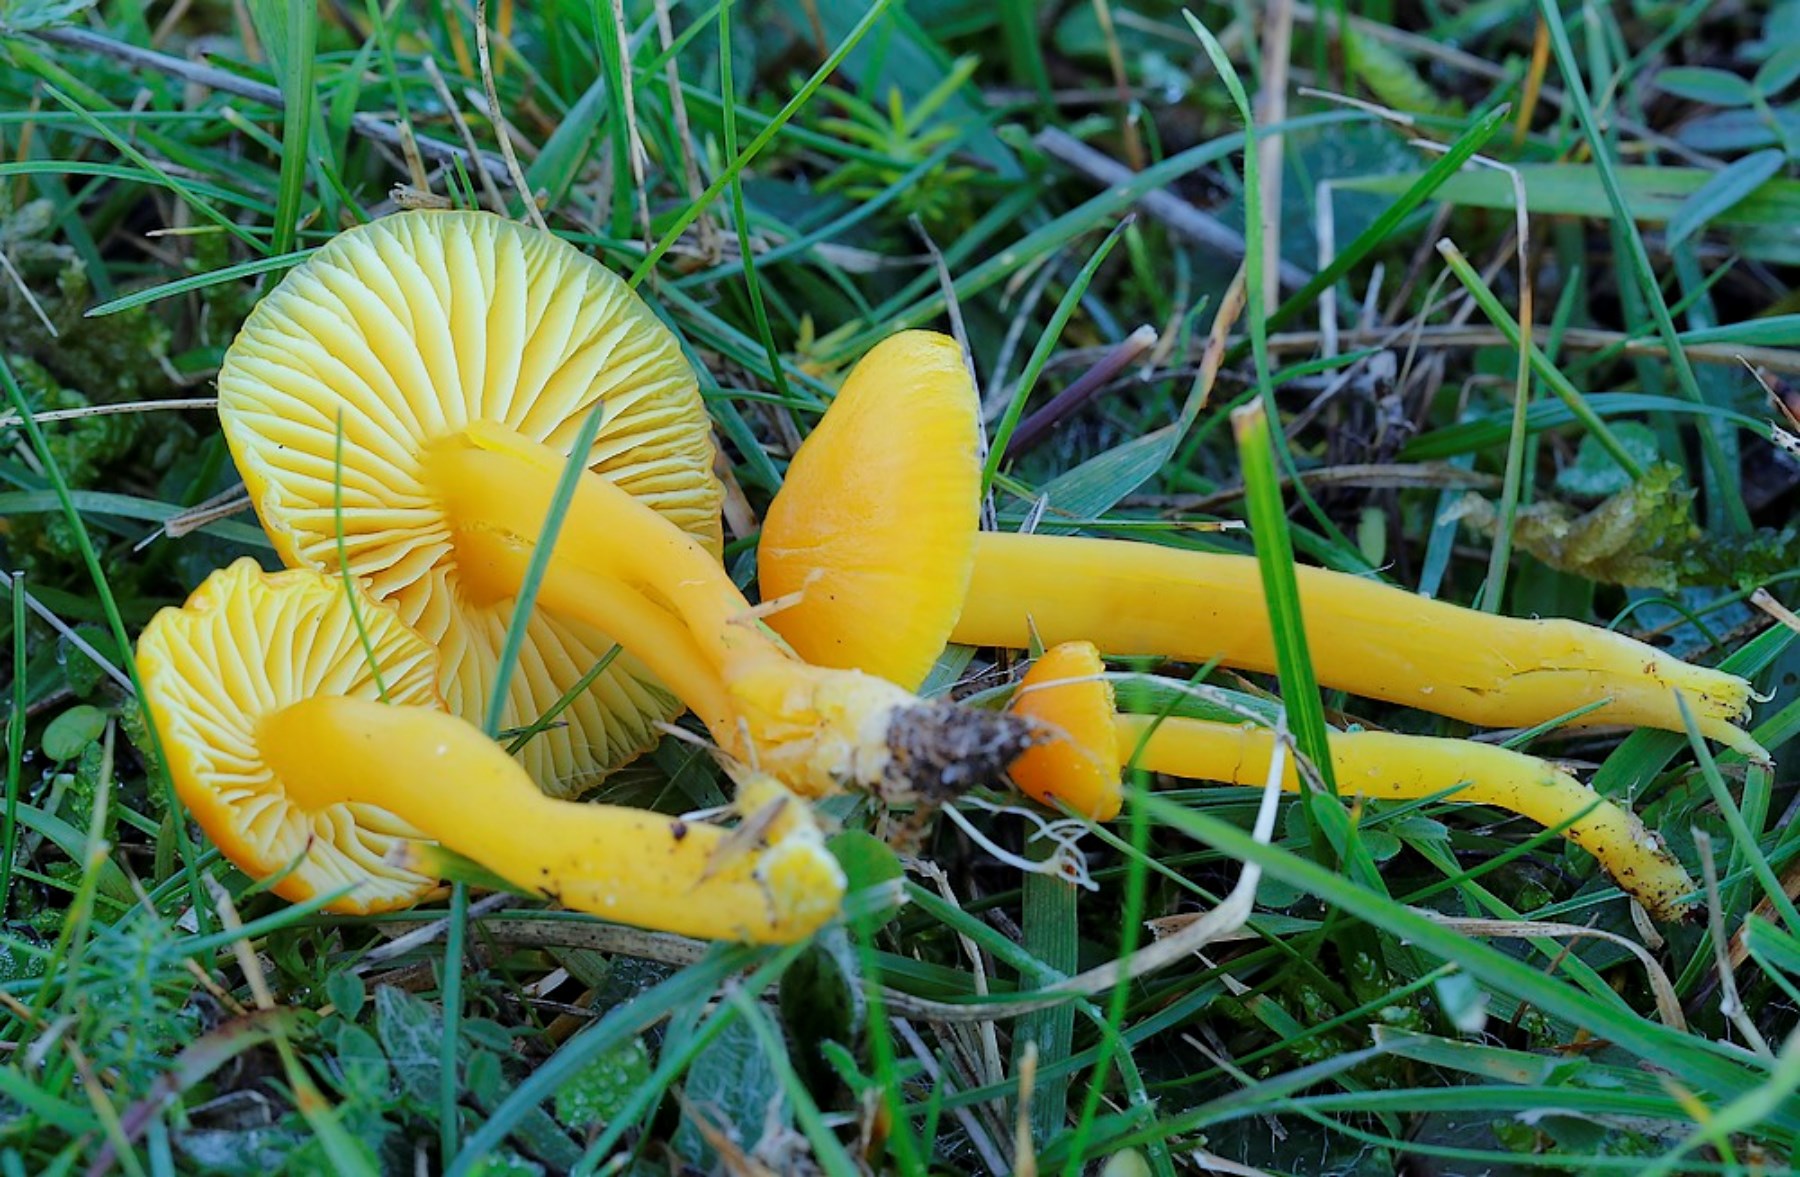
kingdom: Fungi
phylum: Basidiomycota
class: Agaricomycetes
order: Agaricales
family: Hygrophoraceae
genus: Hygrocybe
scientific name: Hygrocybe ceracea
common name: voksgul vokshat
